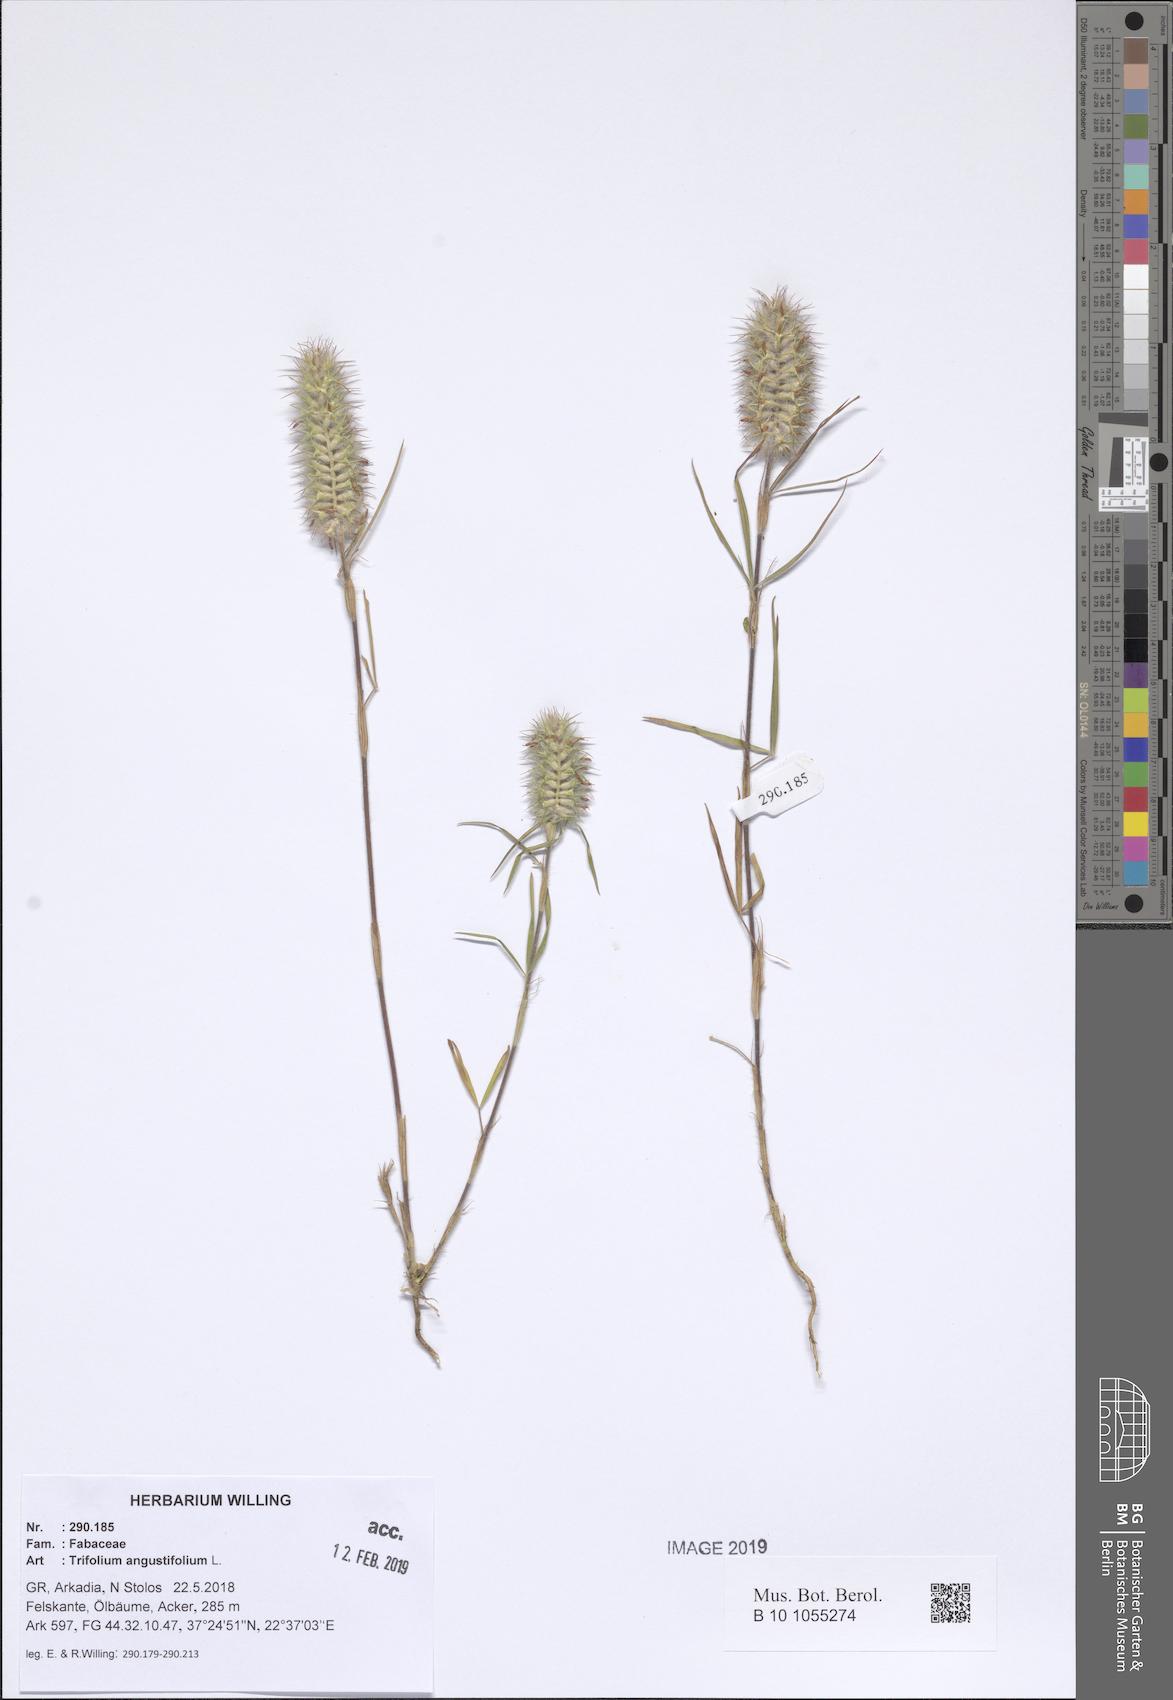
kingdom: Plantae
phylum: Tracheophyta
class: Magnoliopsida
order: Fabales
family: Fabaceae
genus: Trifolium
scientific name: Trifolium angustifolium
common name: Narrow clover
